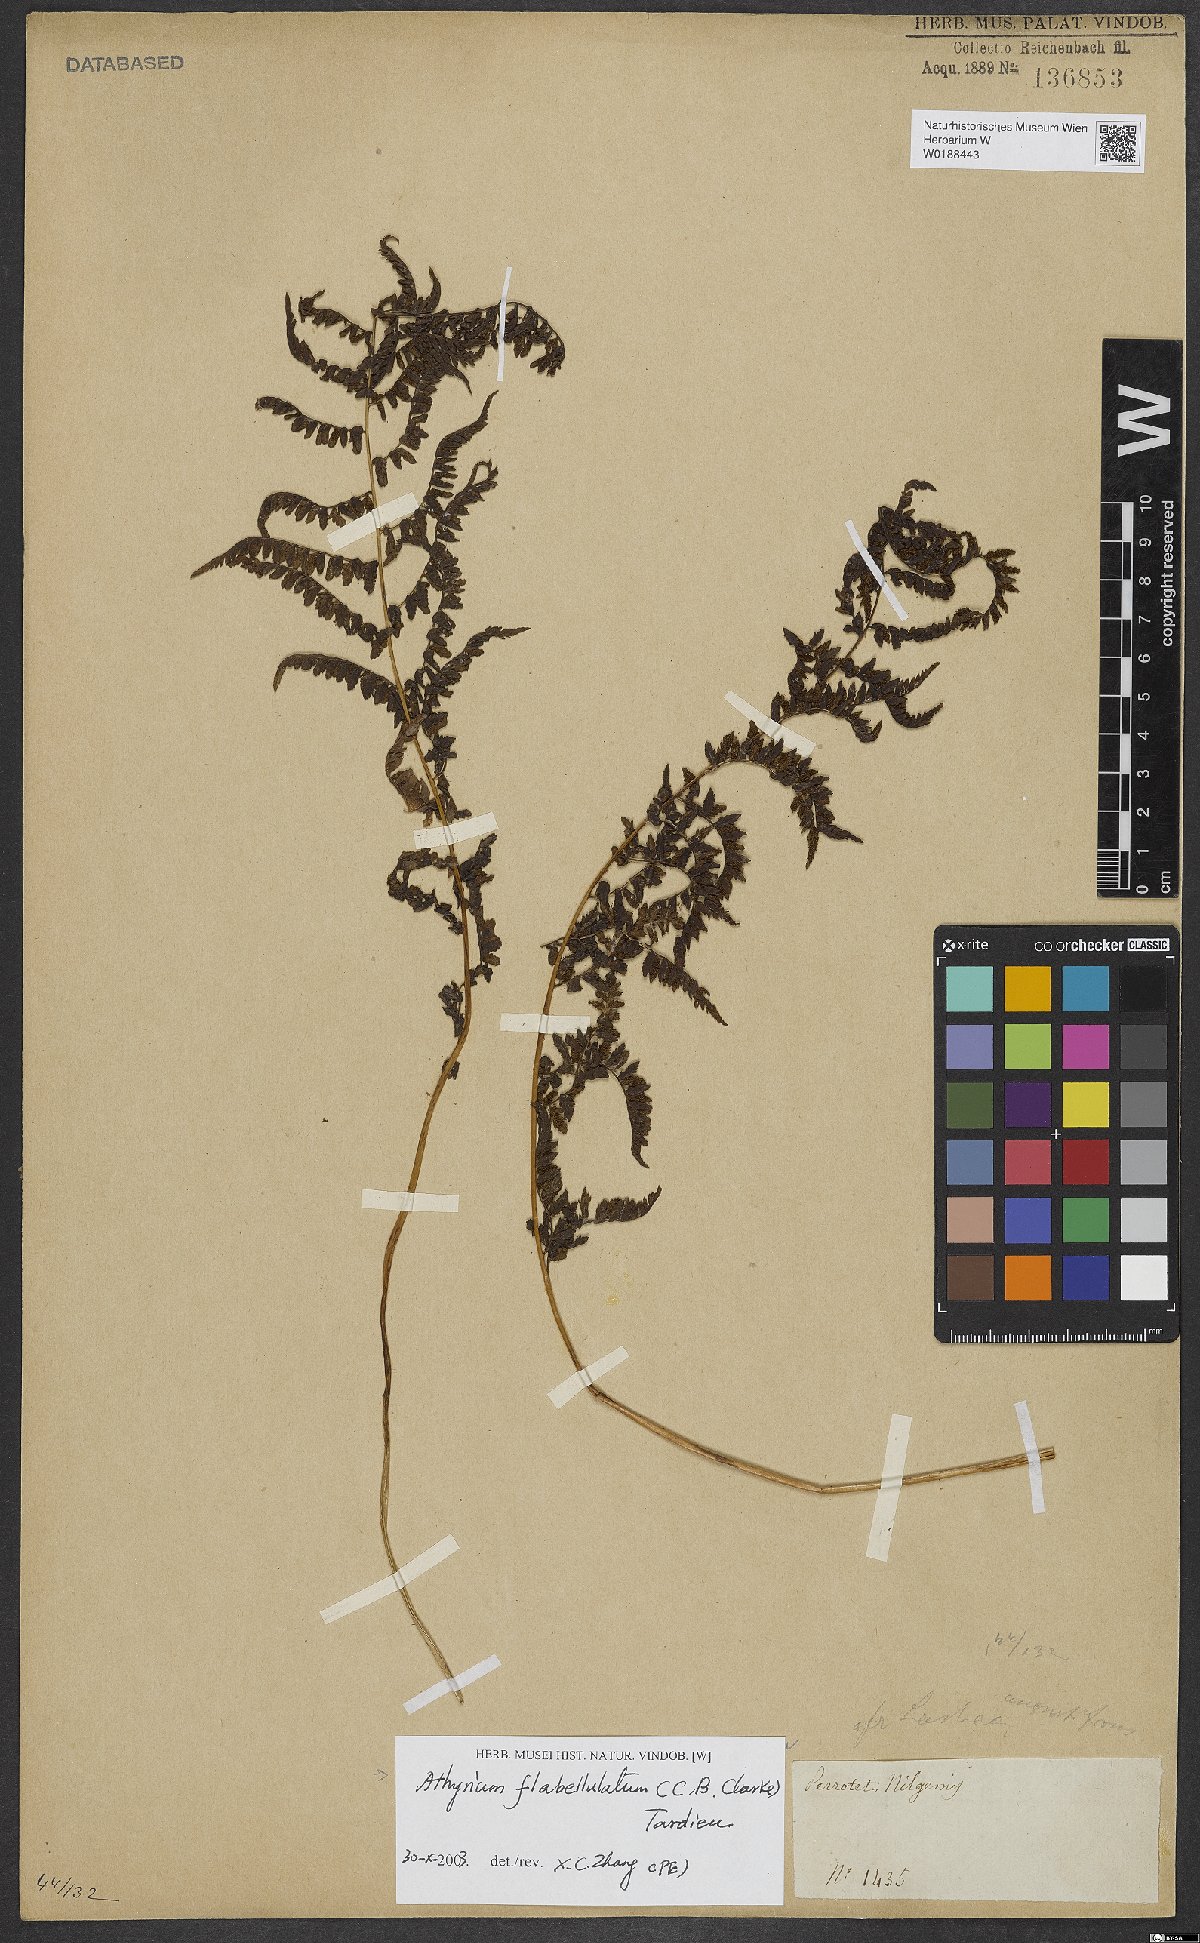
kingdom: Plantae
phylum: Tracheophyta
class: Polypodiopsida
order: Polypodiales
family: Athyriaceae
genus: Athyrium
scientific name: Athyrium flabellulatum
